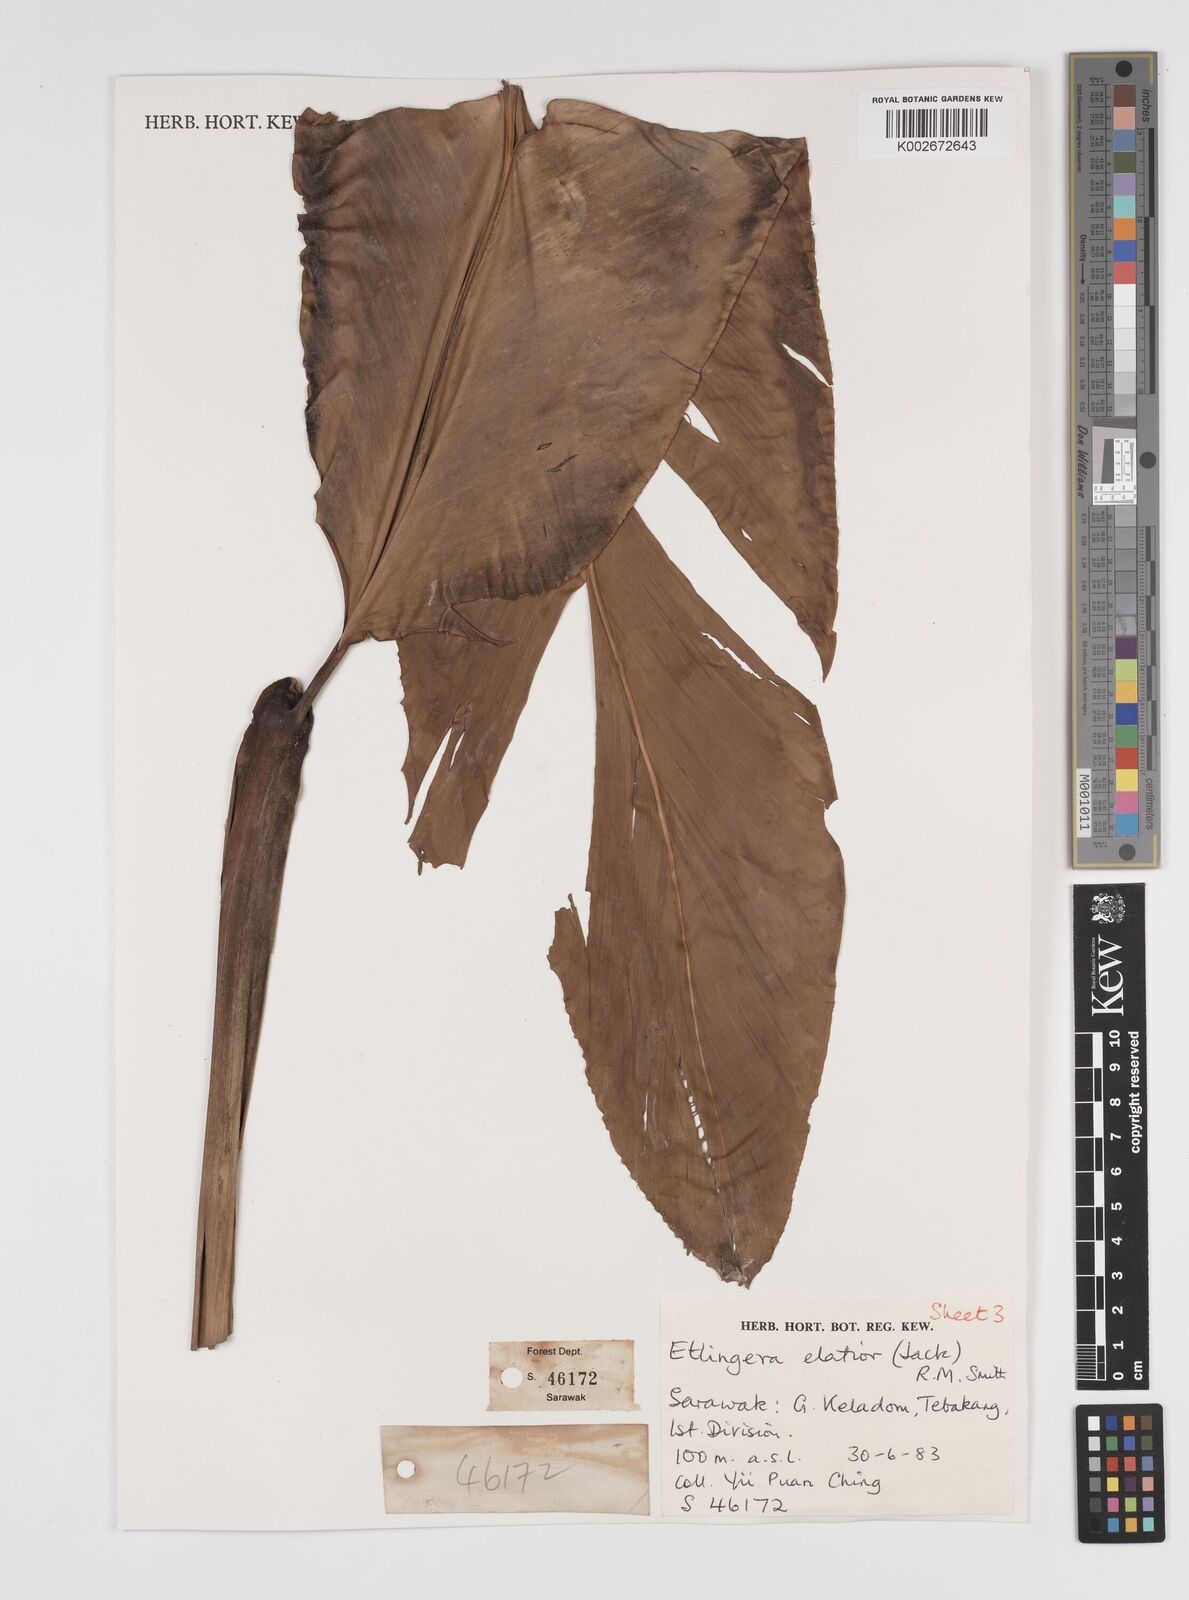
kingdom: Plantae
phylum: Tracheophyta
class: Liliopsida
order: Zingiberales
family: Zingiberaceae
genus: Etlingera
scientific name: Etlingera elatior
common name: Philippine waxflower
